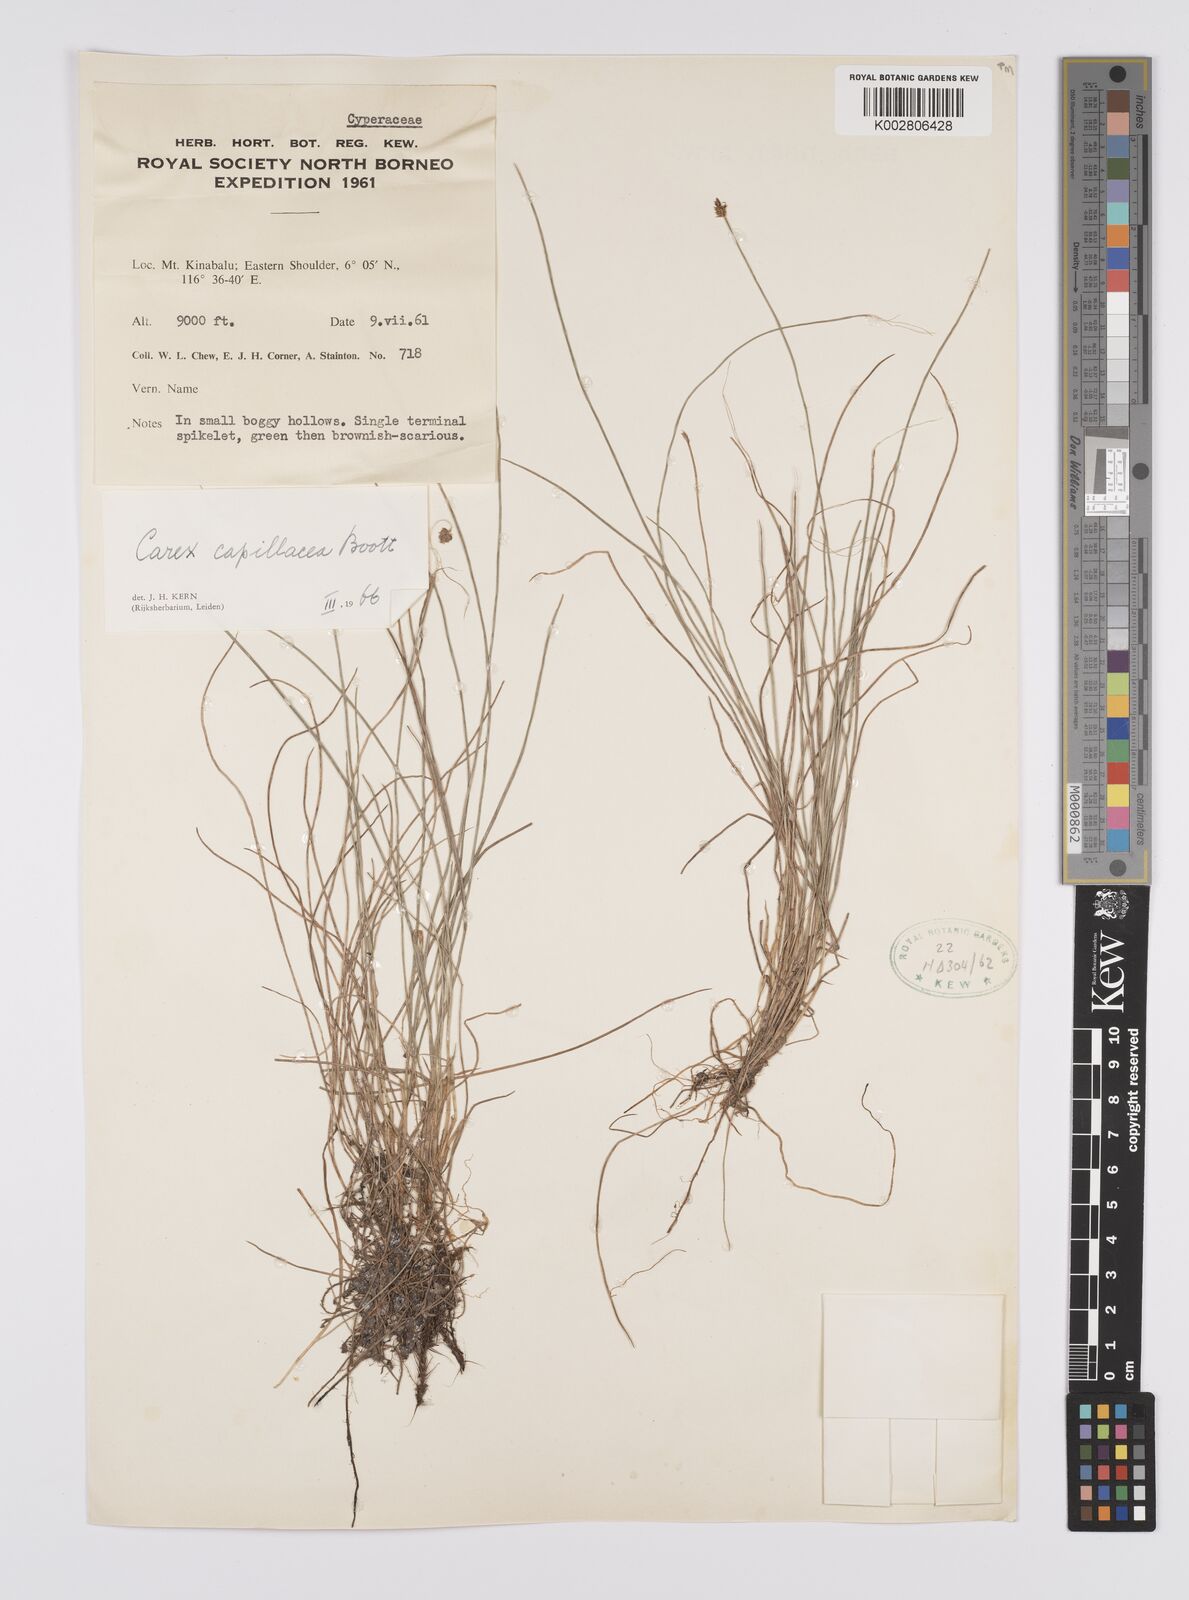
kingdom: Plantae
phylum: Tracheophyta
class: Liliopsida
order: Poales
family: Cyperaceae
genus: Carex
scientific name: Carex capillacea
